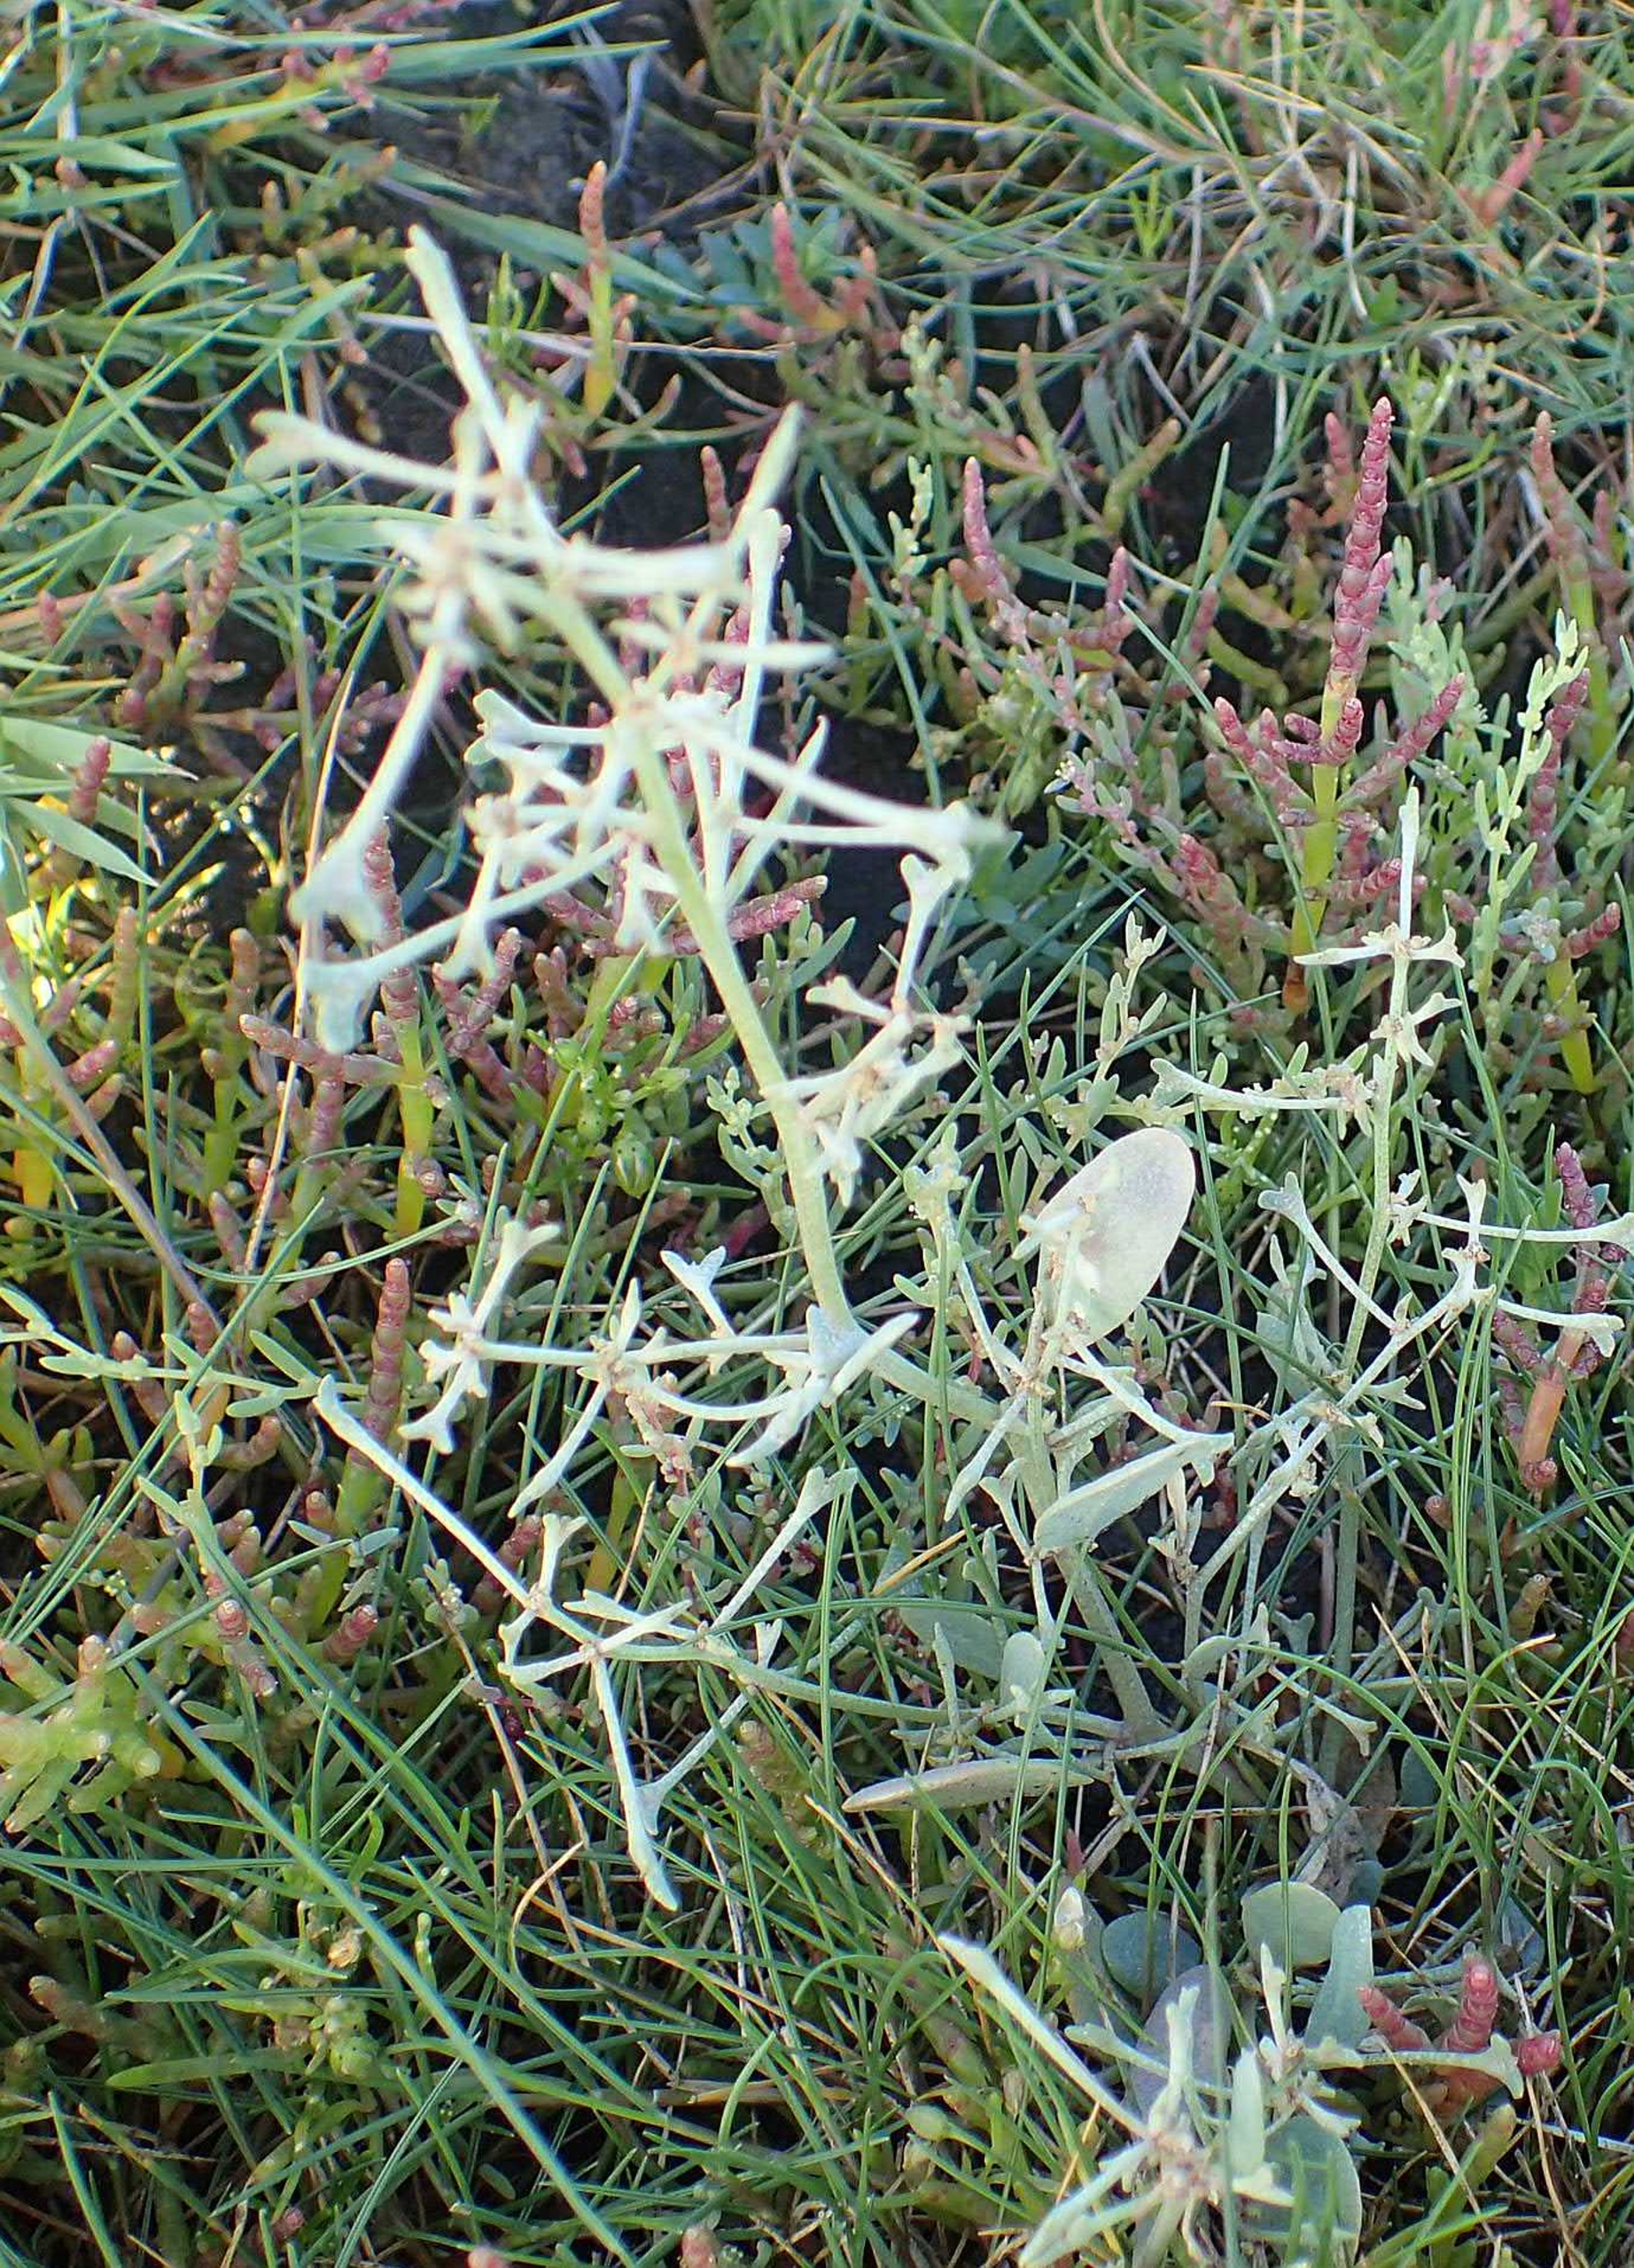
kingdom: Plantae
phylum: Tracheophyta
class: Magnoliopsida
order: Caryophyllales
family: Amaranthaceae
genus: Halimione
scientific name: Halimione pedunculata
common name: Stilket kilebæger
